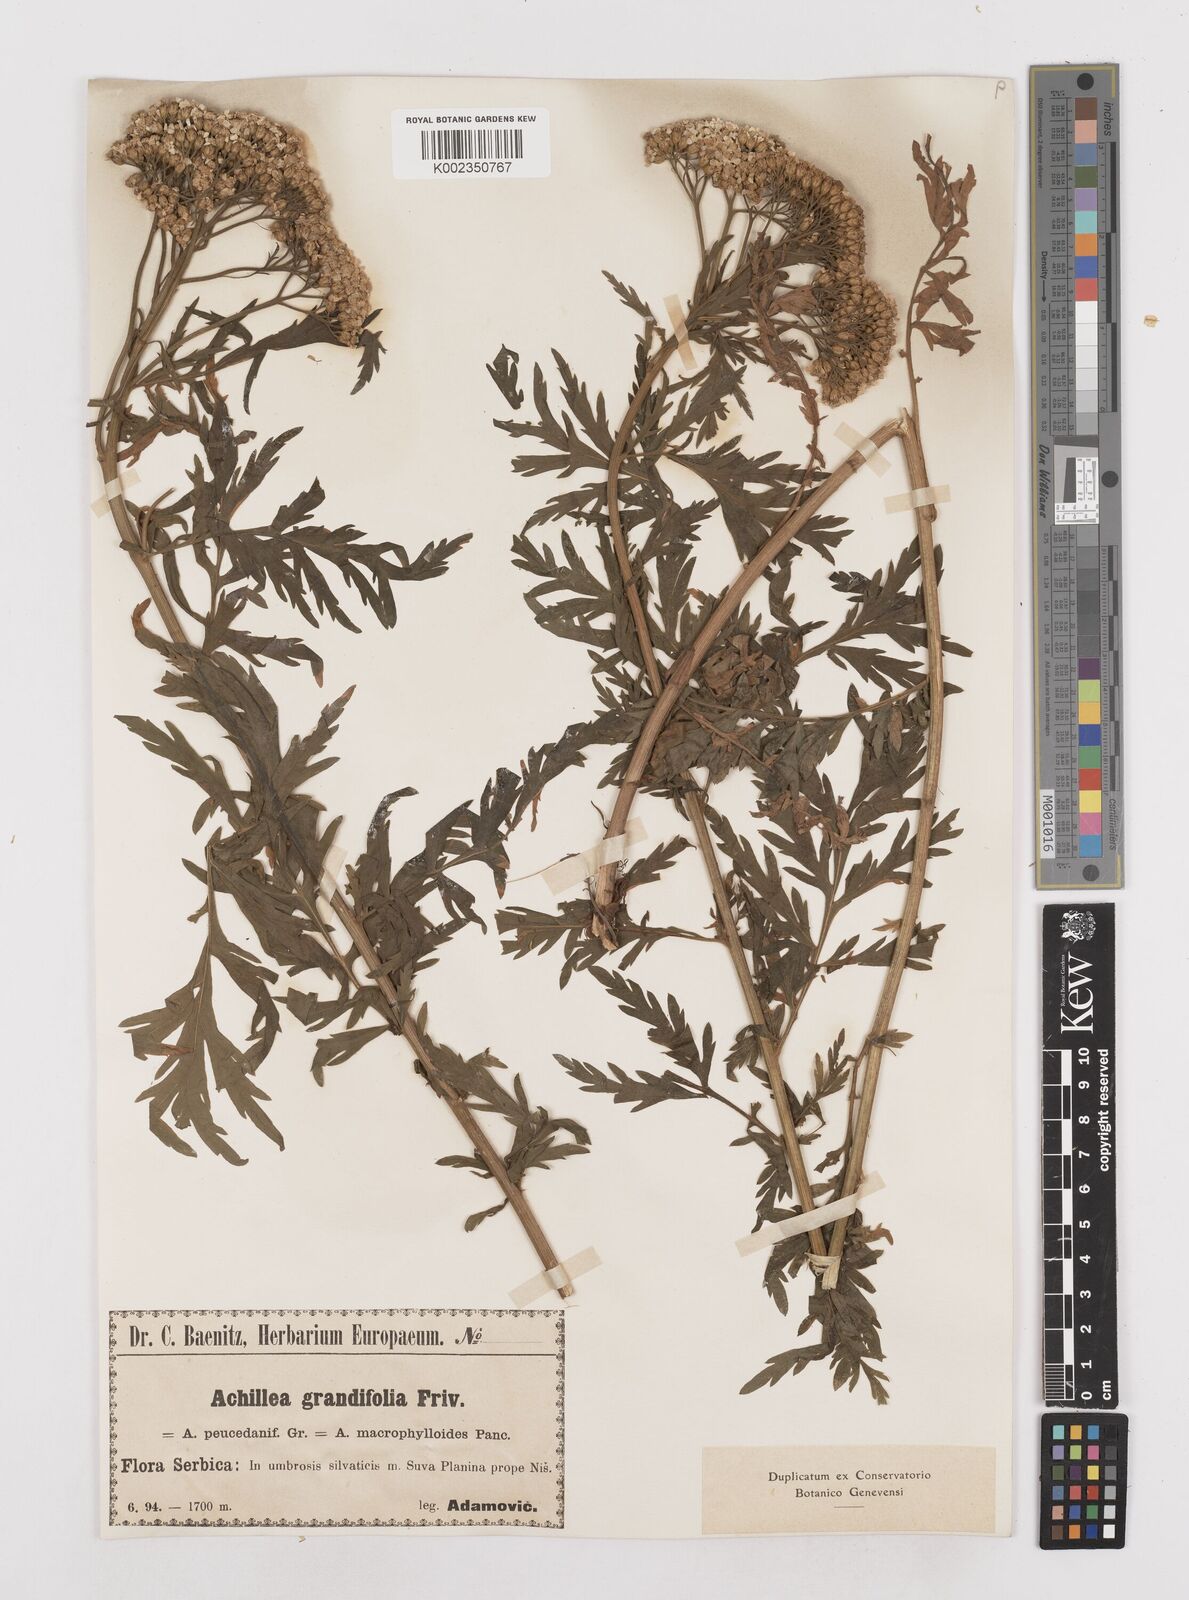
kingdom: Plantae
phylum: Tracheophyta
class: Magnoliopsida
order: Asterales
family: Asteraceae
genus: Achillea
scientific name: Achillea grandifolia
